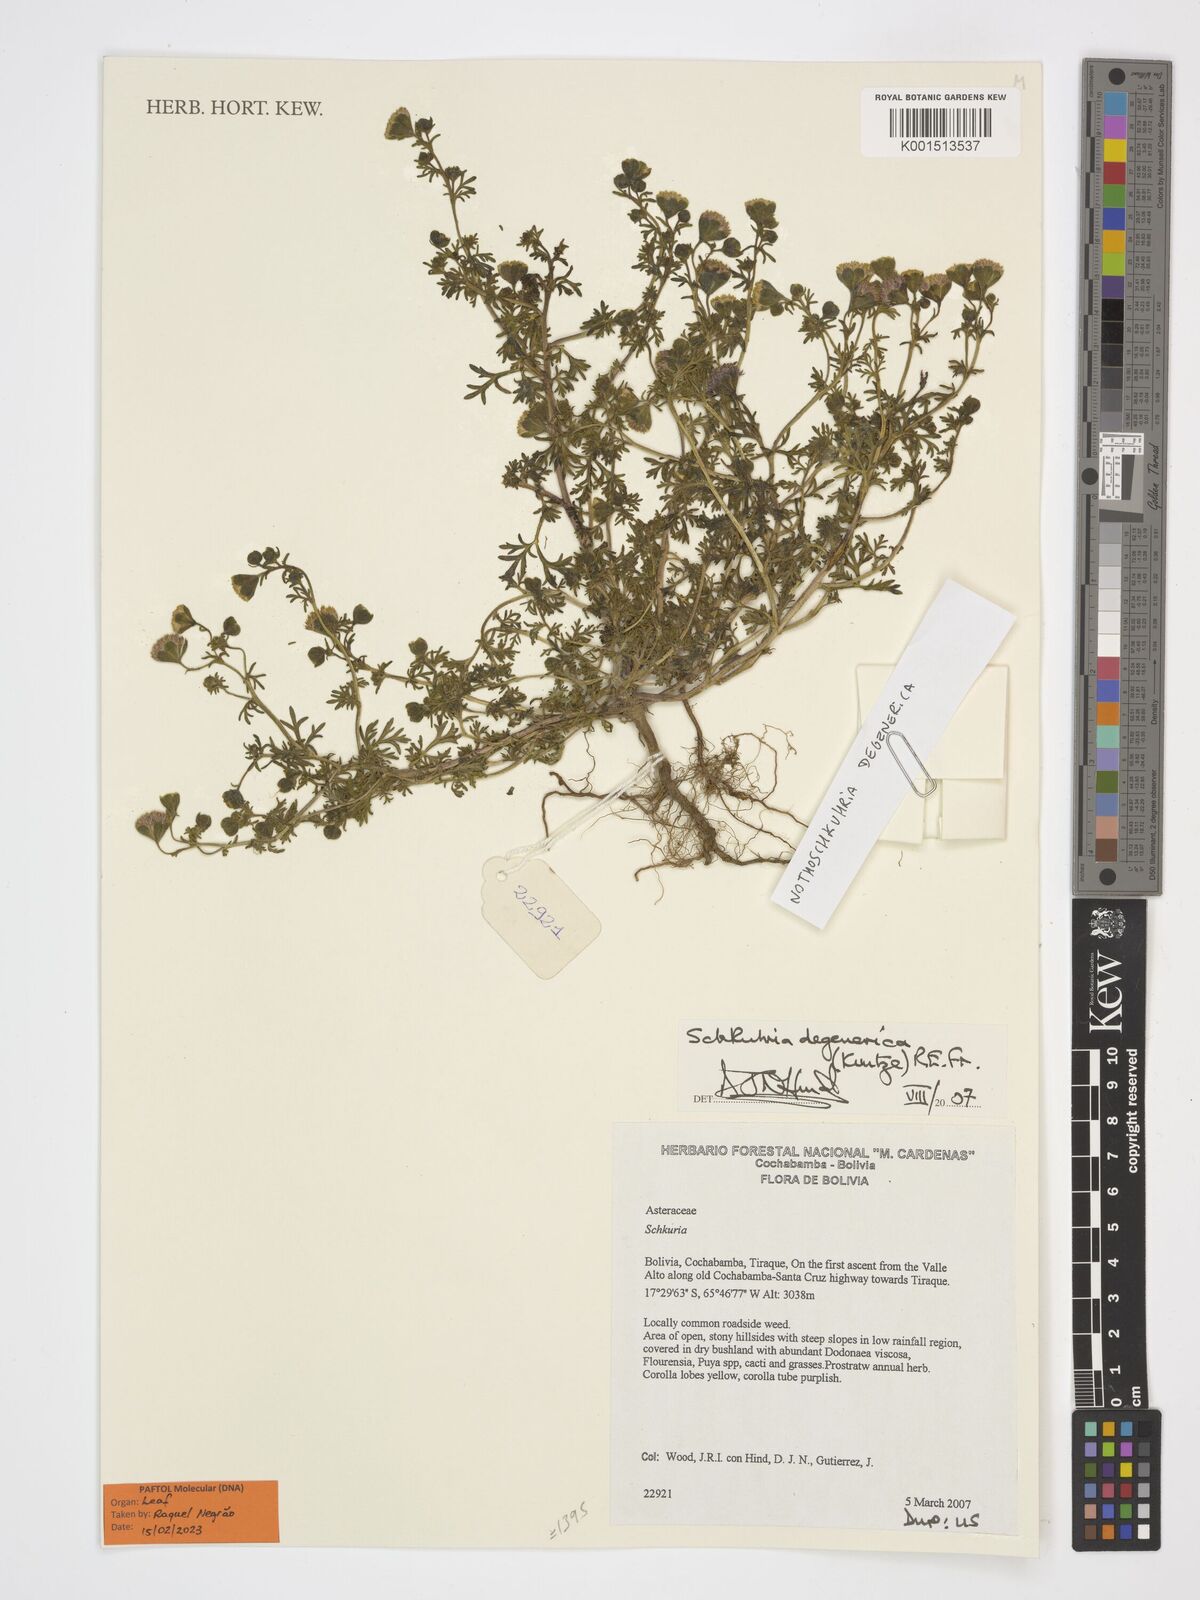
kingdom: Plantae
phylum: Tracheophyta
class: Magnoliopsida
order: Asterales
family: Asteraceae
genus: Nothoschkuhria
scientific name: Nothoschkuhria degenerica
